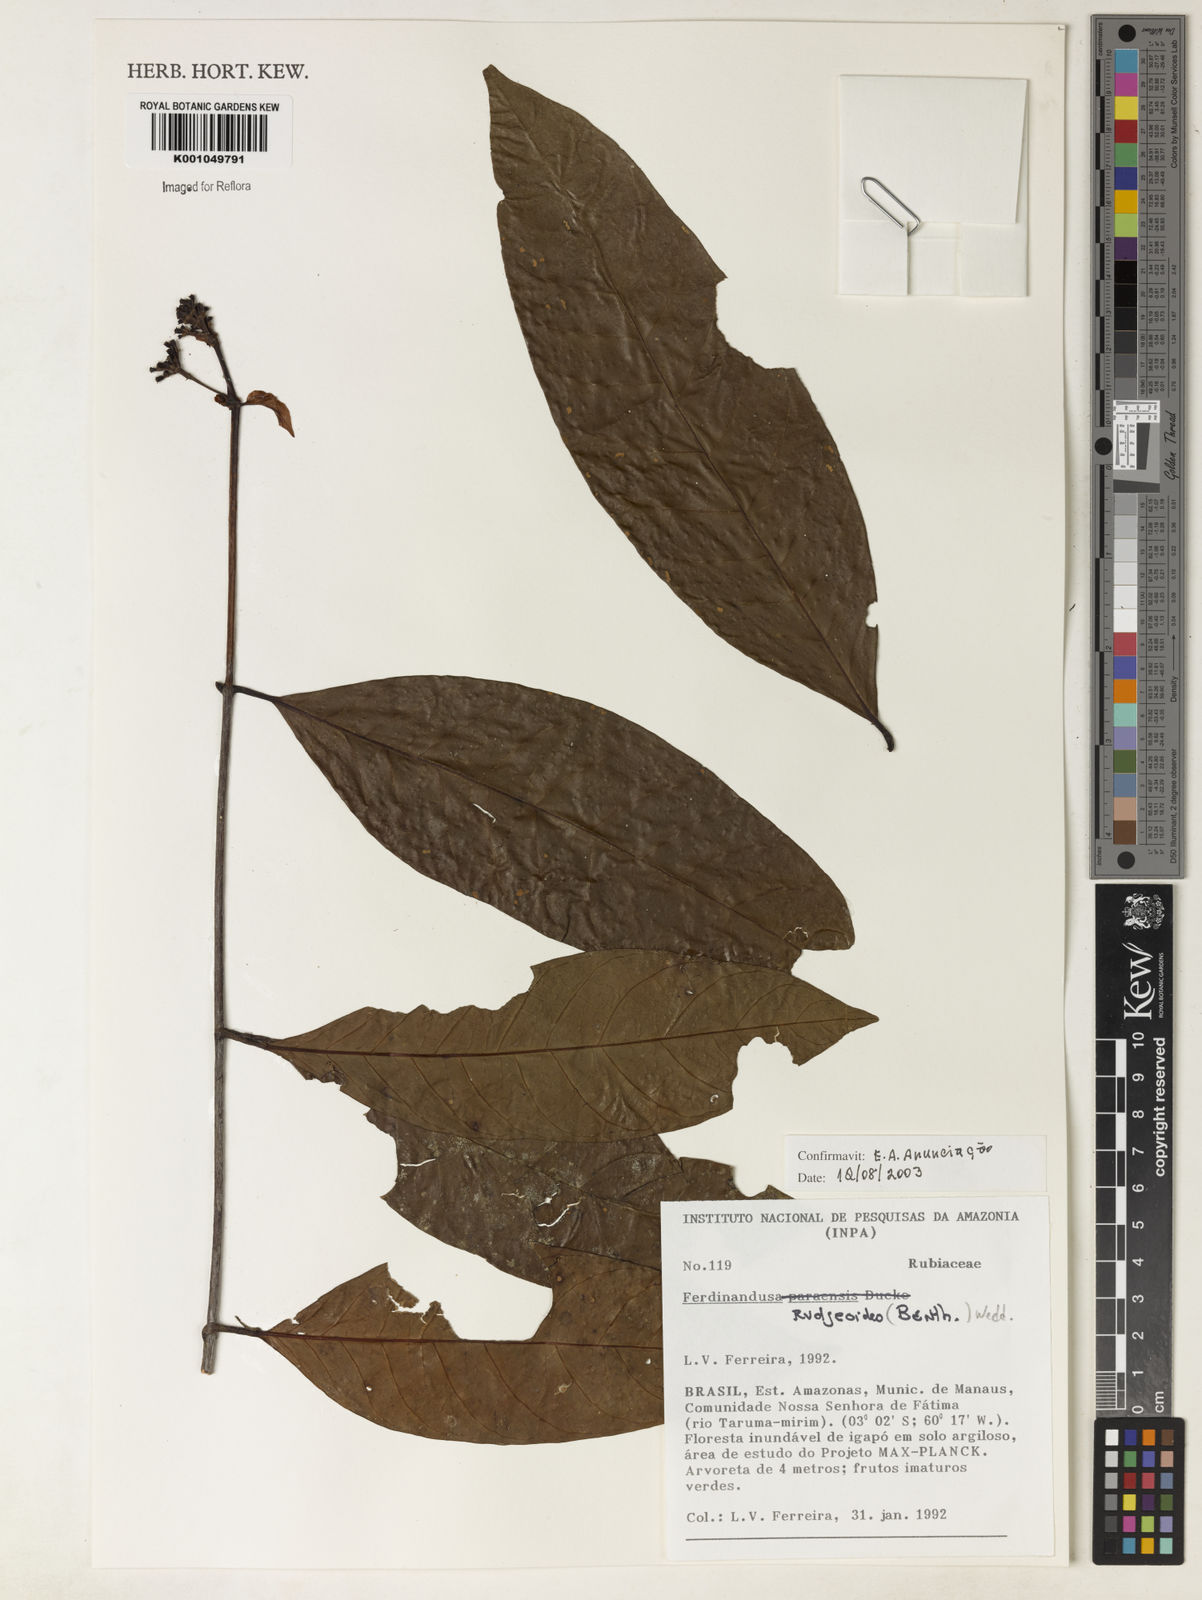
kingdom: Plantae
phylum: Tracheophyta
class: Magnoliopsida
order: Gentianales
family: Rubiaceae
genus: Ferdinandusa
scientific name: Ferdinandusa rudgeoides
